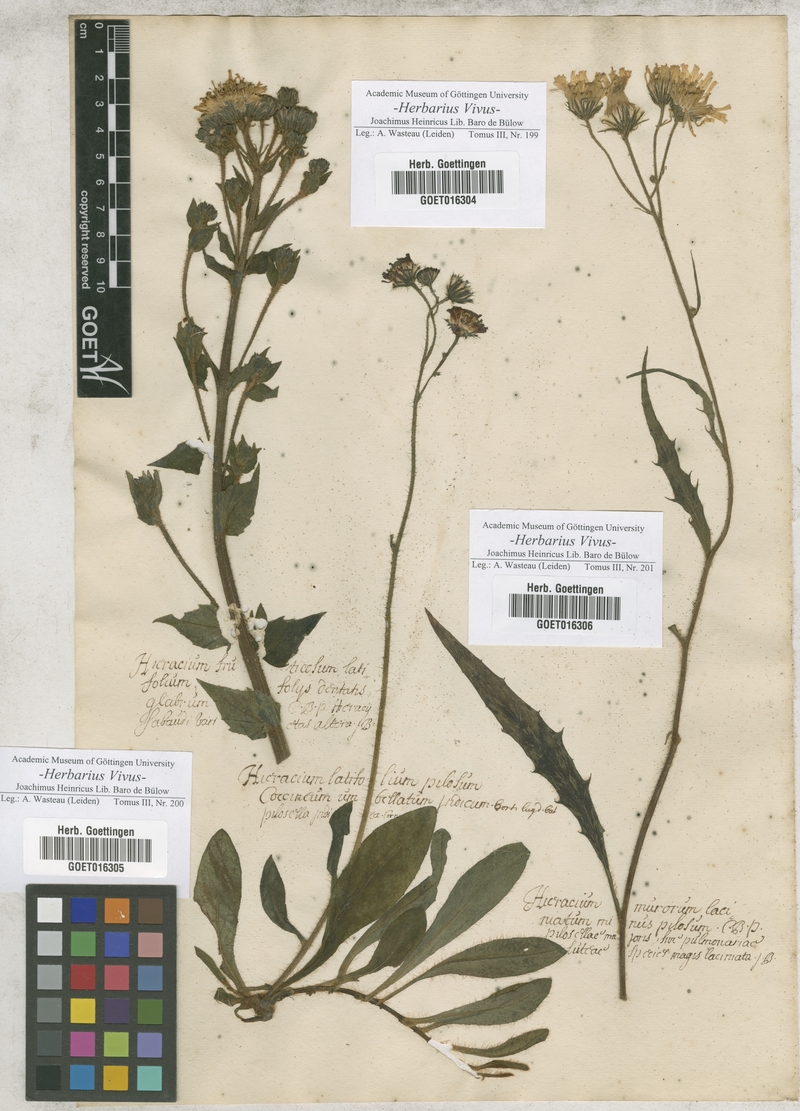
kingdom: Plantae
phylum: Tracheophyta
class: Magnoliopsida
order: Asterales
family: Asteraceae
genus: Hieracium
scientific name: Hieracium
